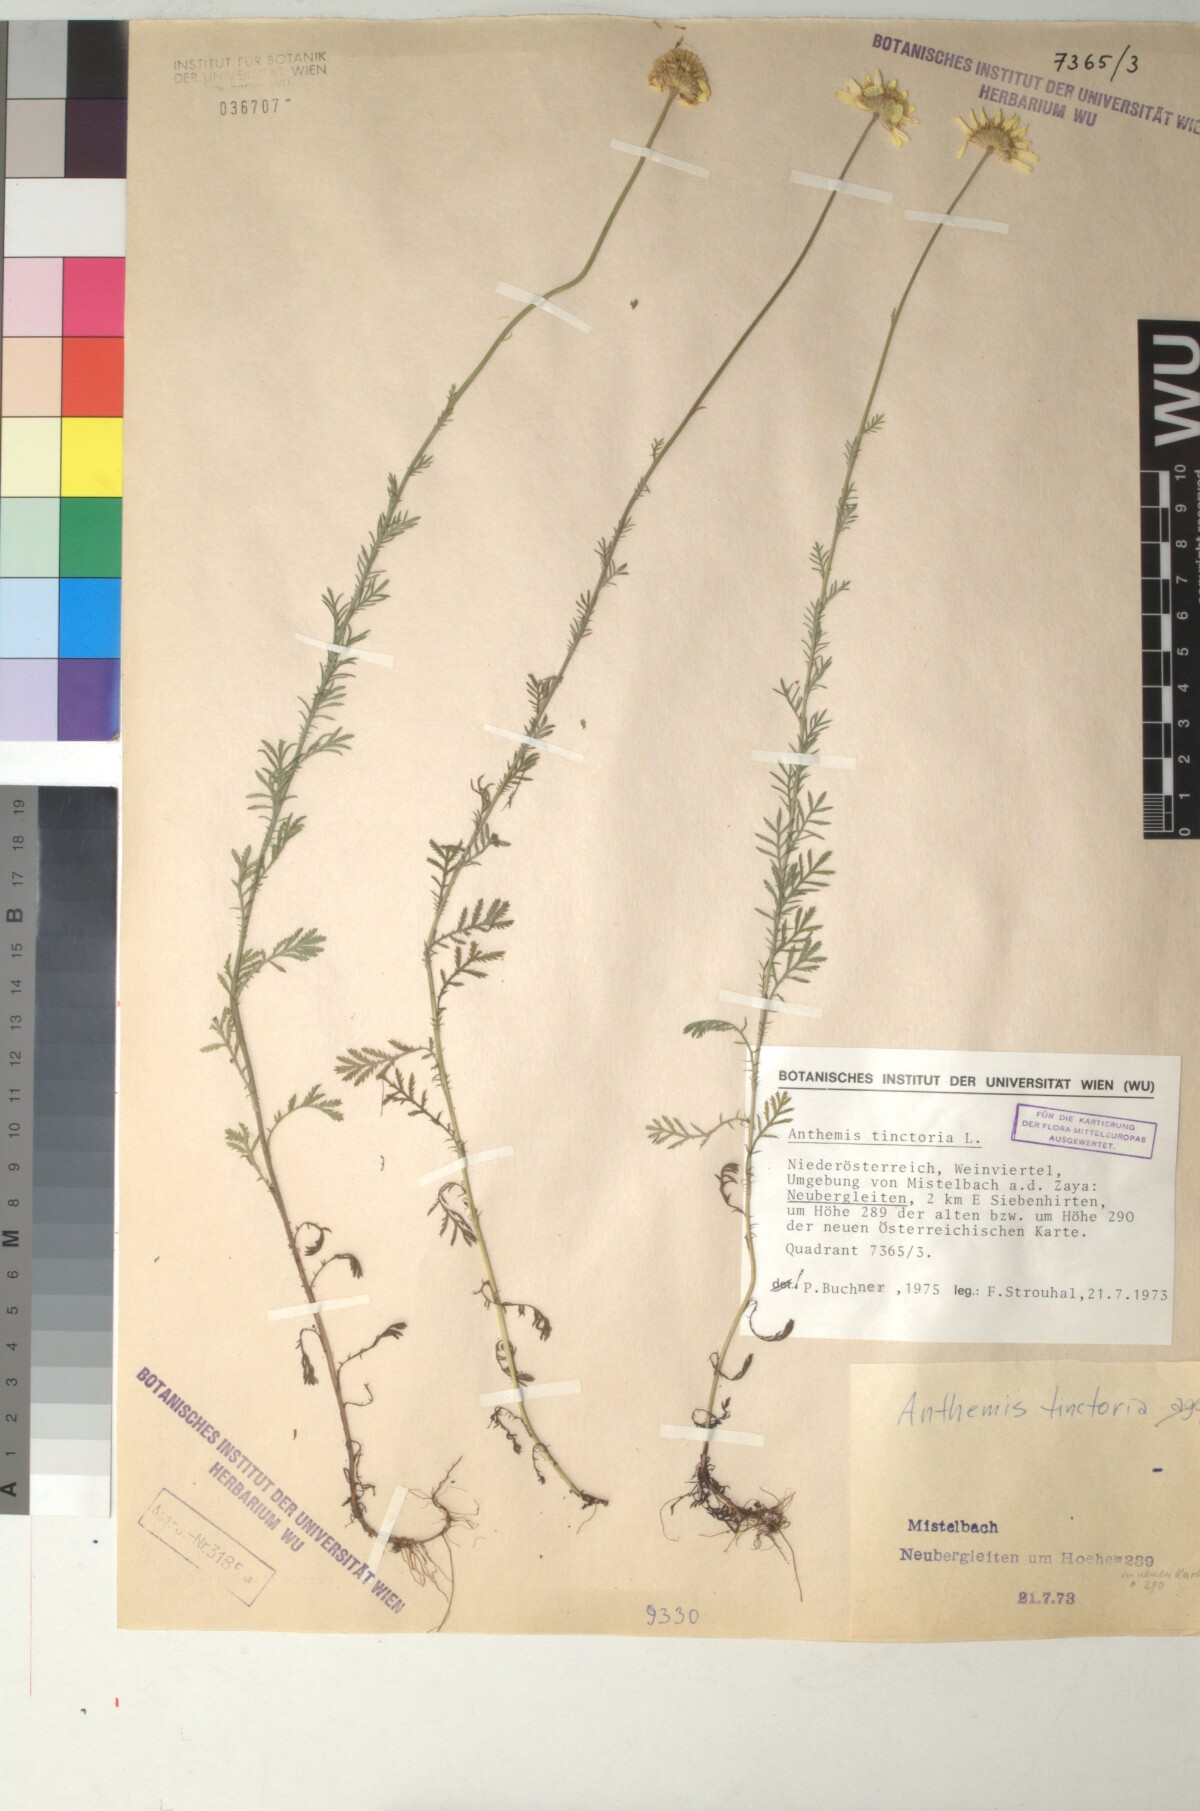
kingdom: Plantae
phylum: Tracheophyta
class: Magnoliopsida
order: Asterales
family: Asteraceae
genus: Cota
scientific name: Cota tinctoria
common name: Golden chamomile
